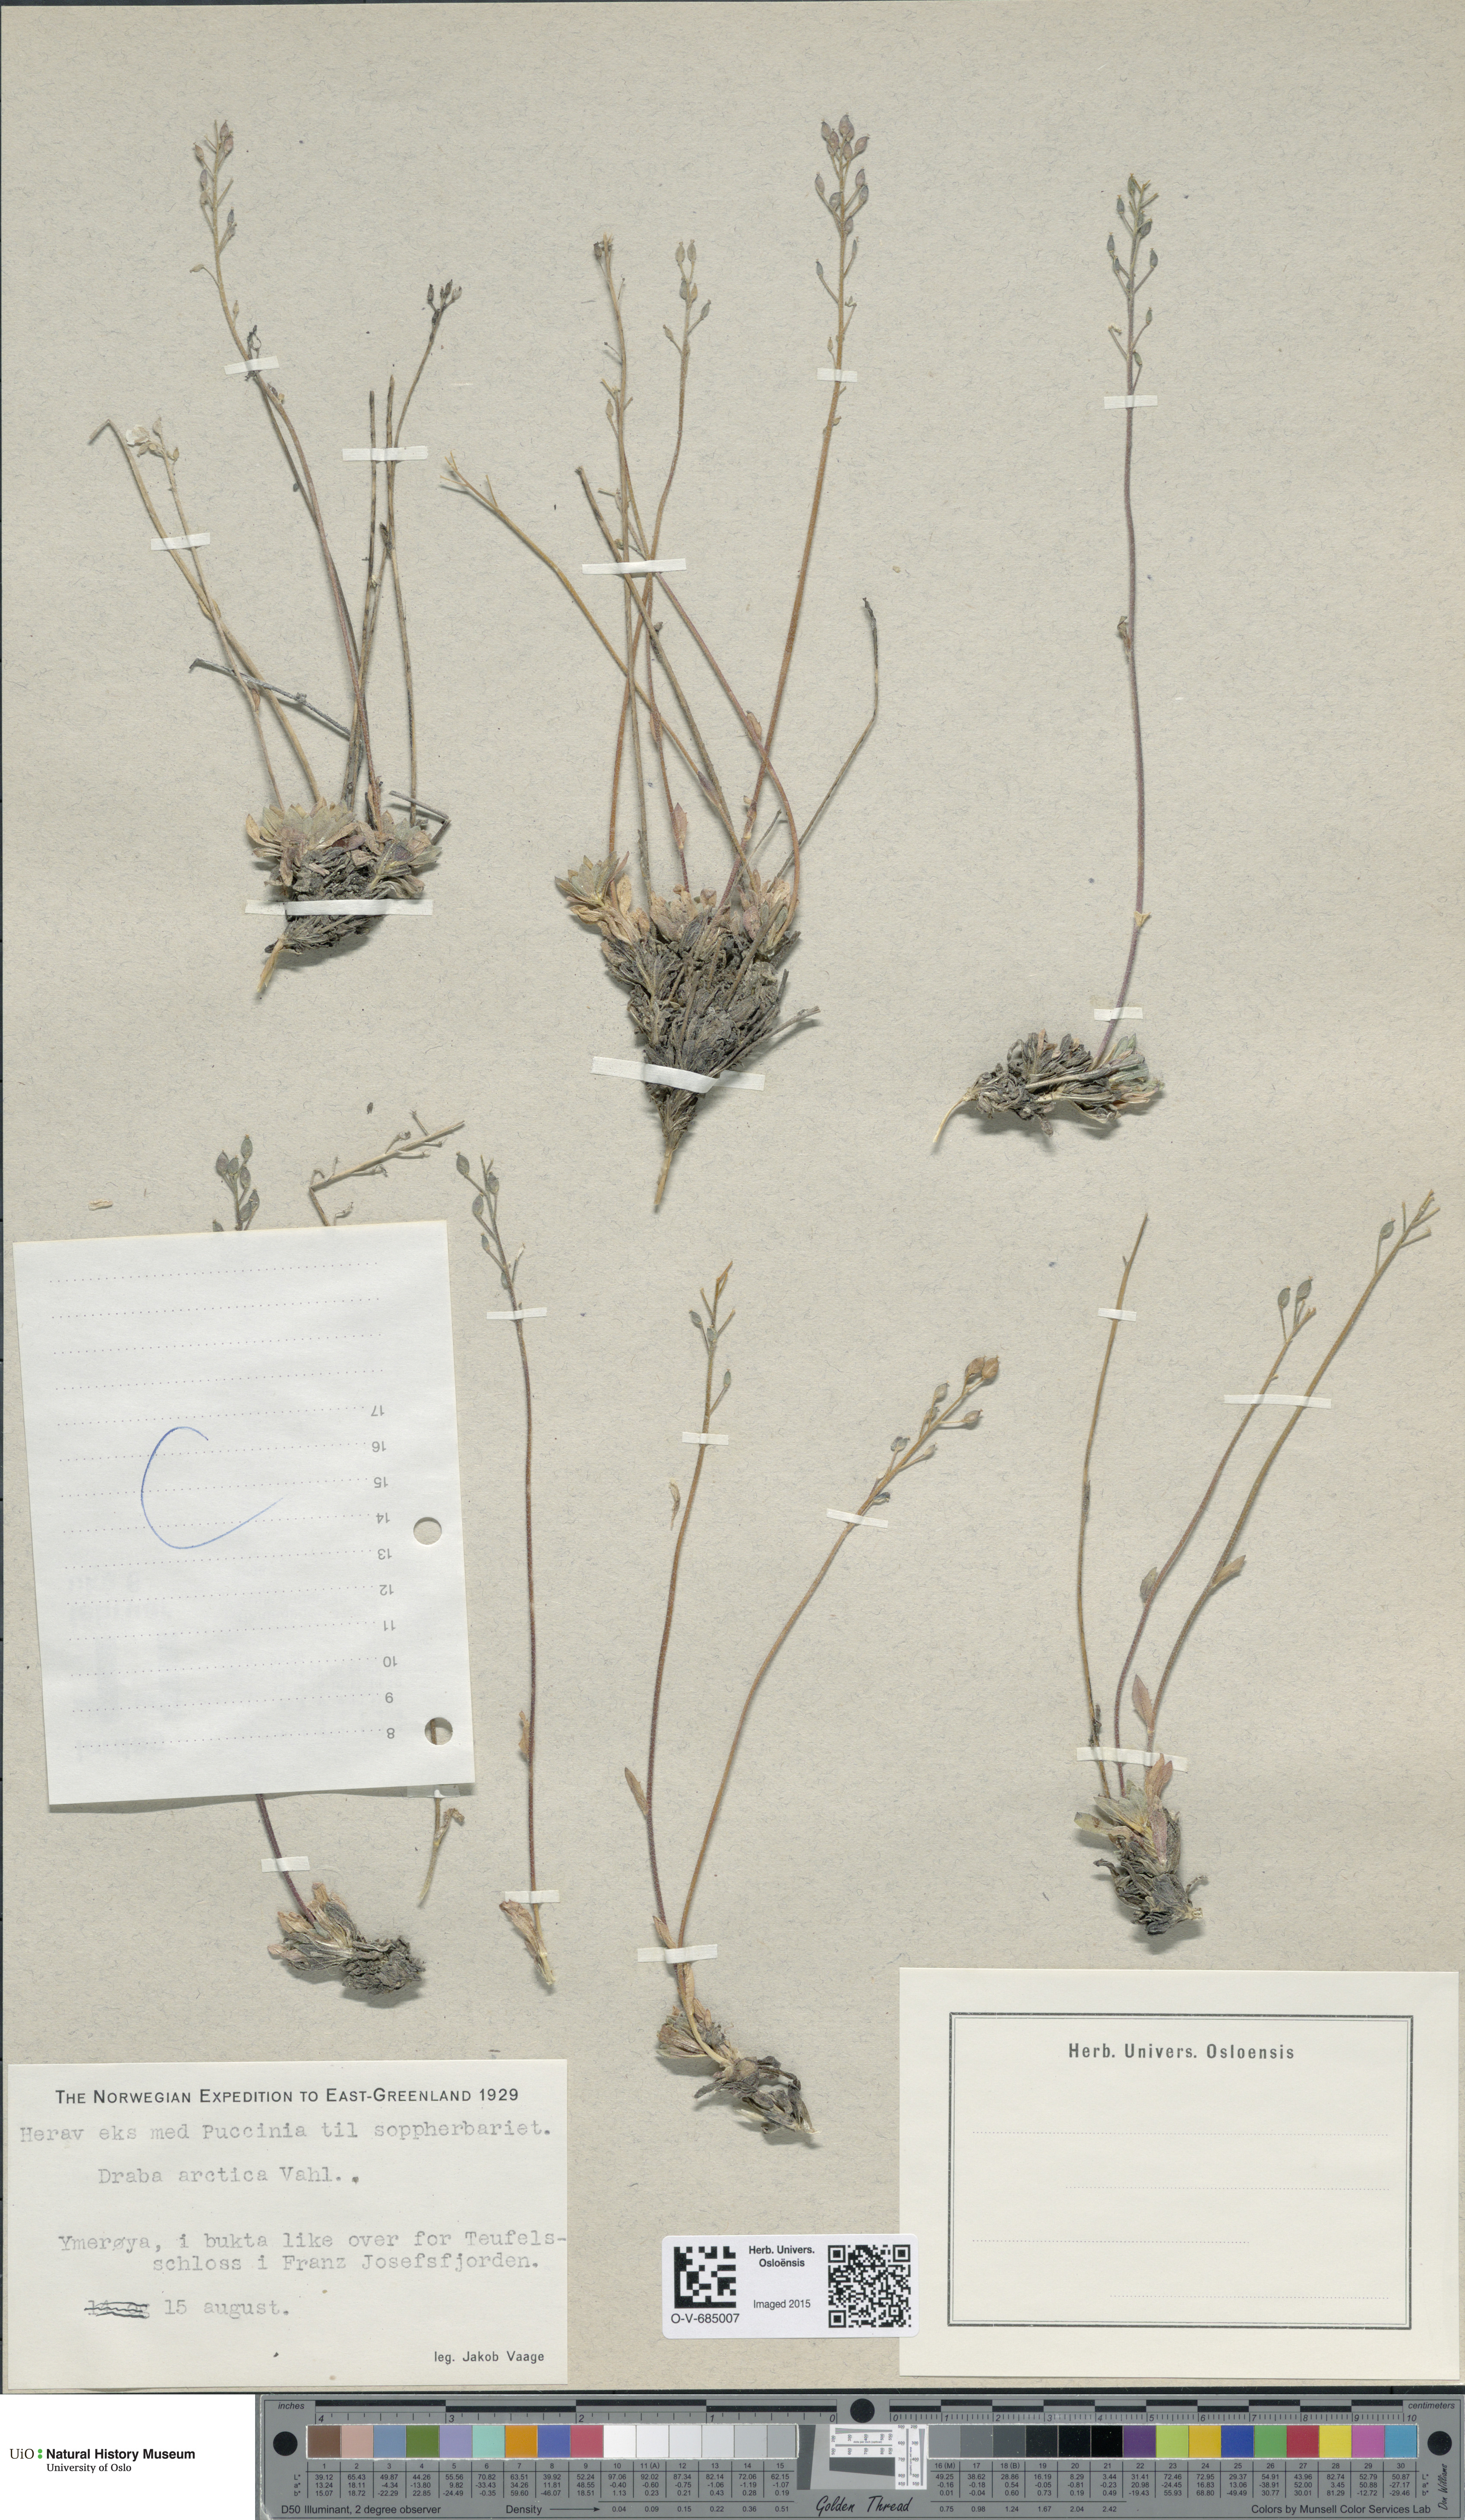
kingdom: Plantae
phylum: Tracheophyta
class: Magnoliopsida
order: Brassicales
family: Brassicaceae
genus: Draba
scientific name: Draba arctica
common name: Arctic draba
